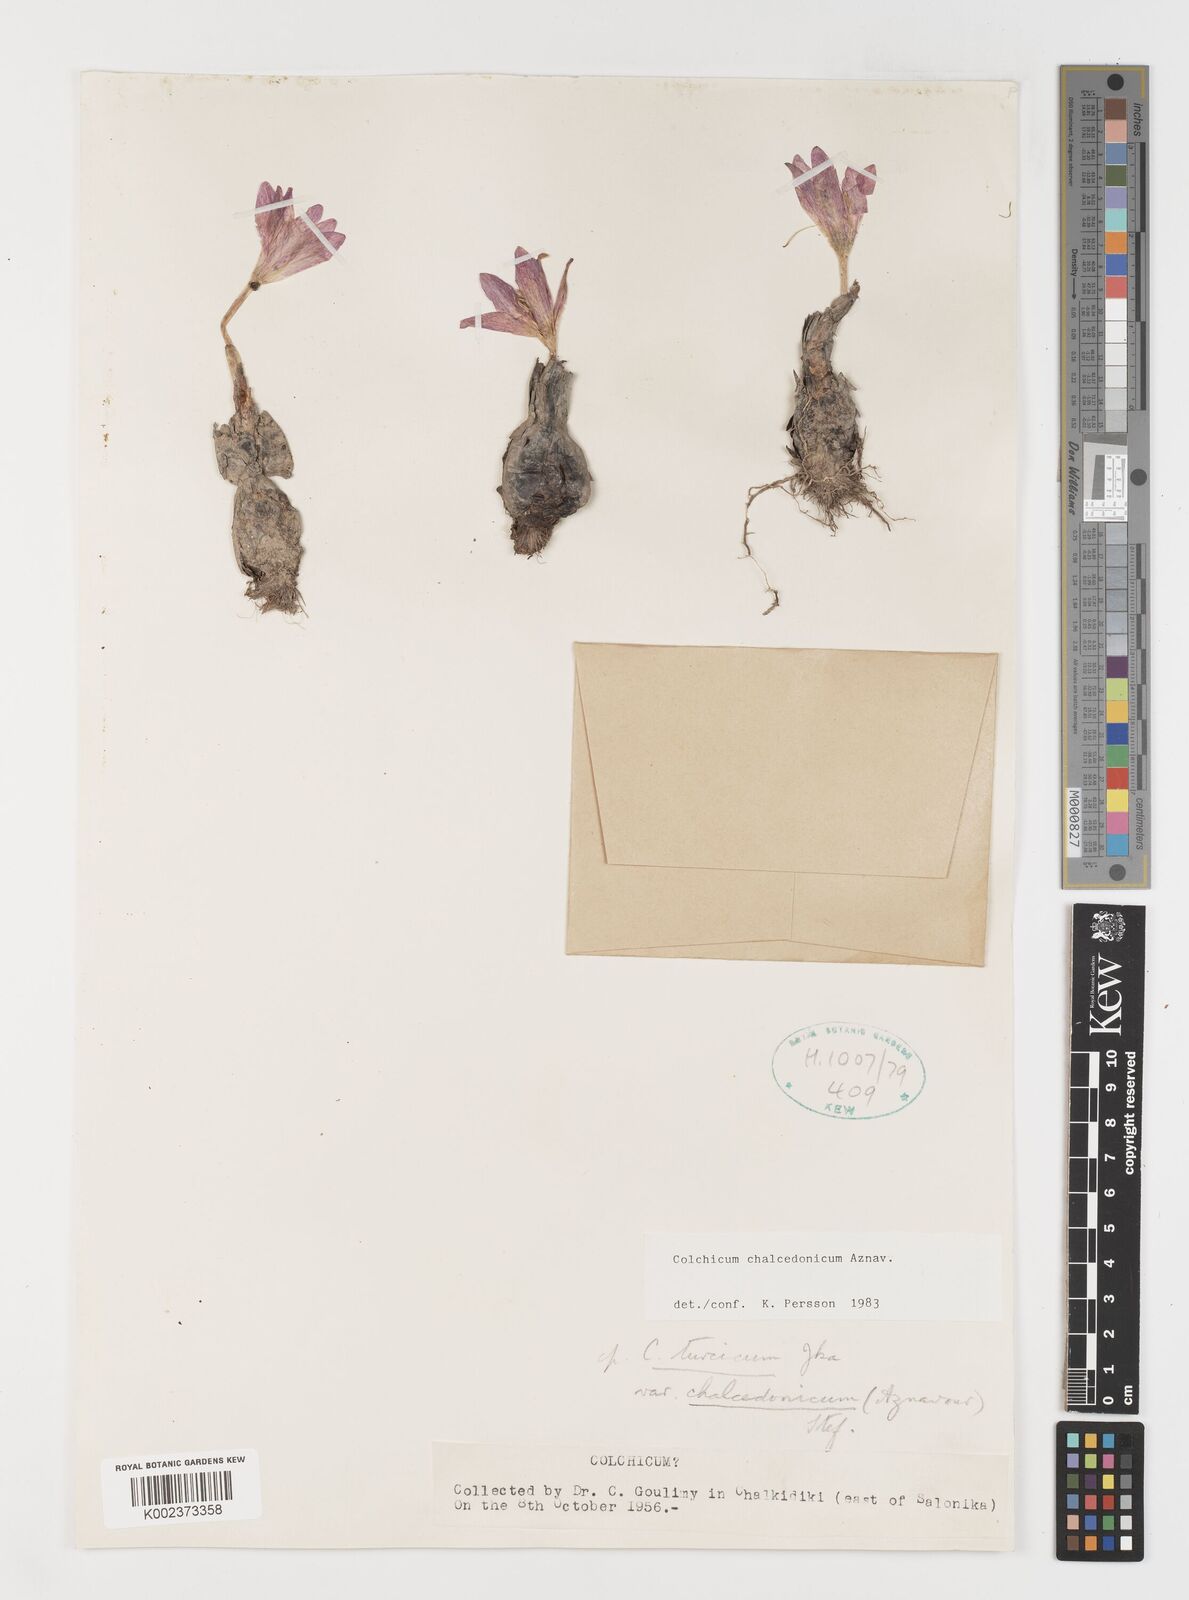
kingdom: Plantae
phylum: Tracheophyta
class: Liliopsida
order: Liliales
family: Colchicaceae
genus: Colchicum
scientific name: Colchicum chalcedonicum
